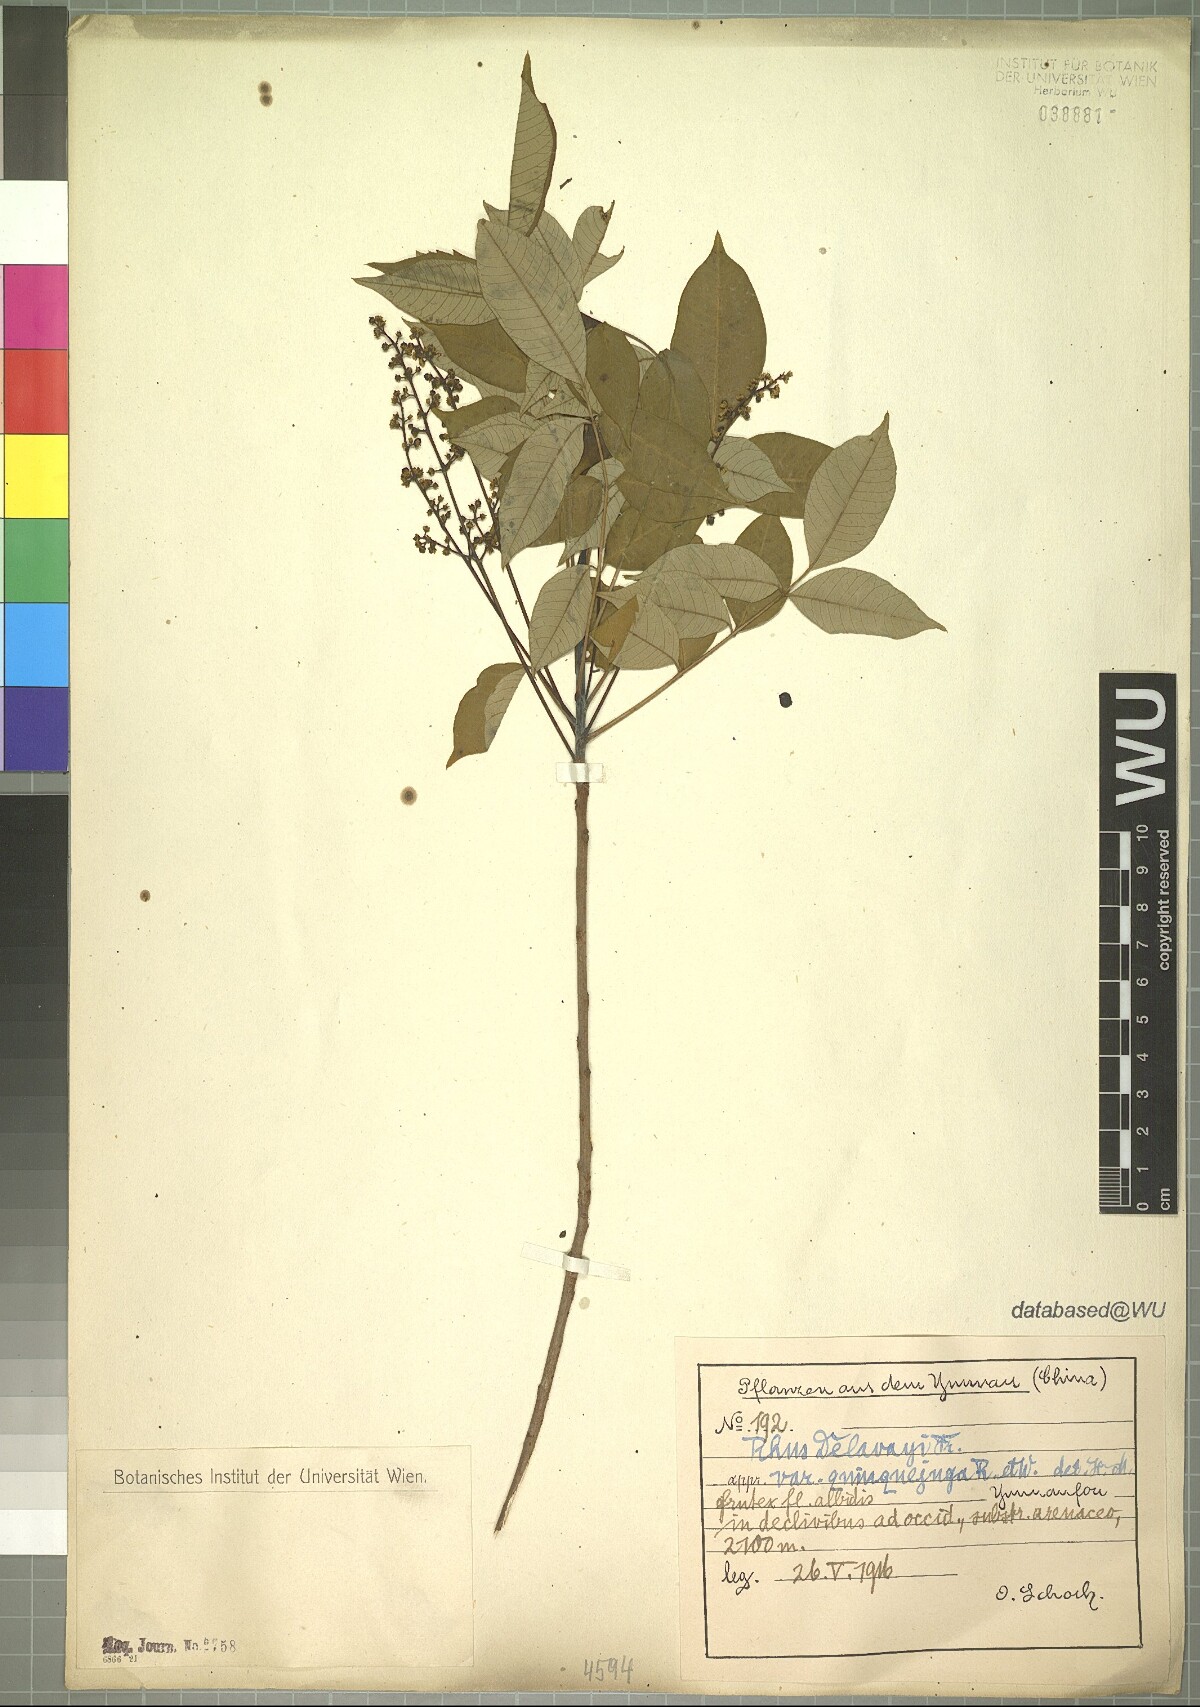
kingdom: Plantae
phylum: Tracheophyta
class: Magnoliopsida
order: Sapindales
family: Anacardiaceae
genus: Toxicodendron
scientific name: Toxicodendron grandiflorum
